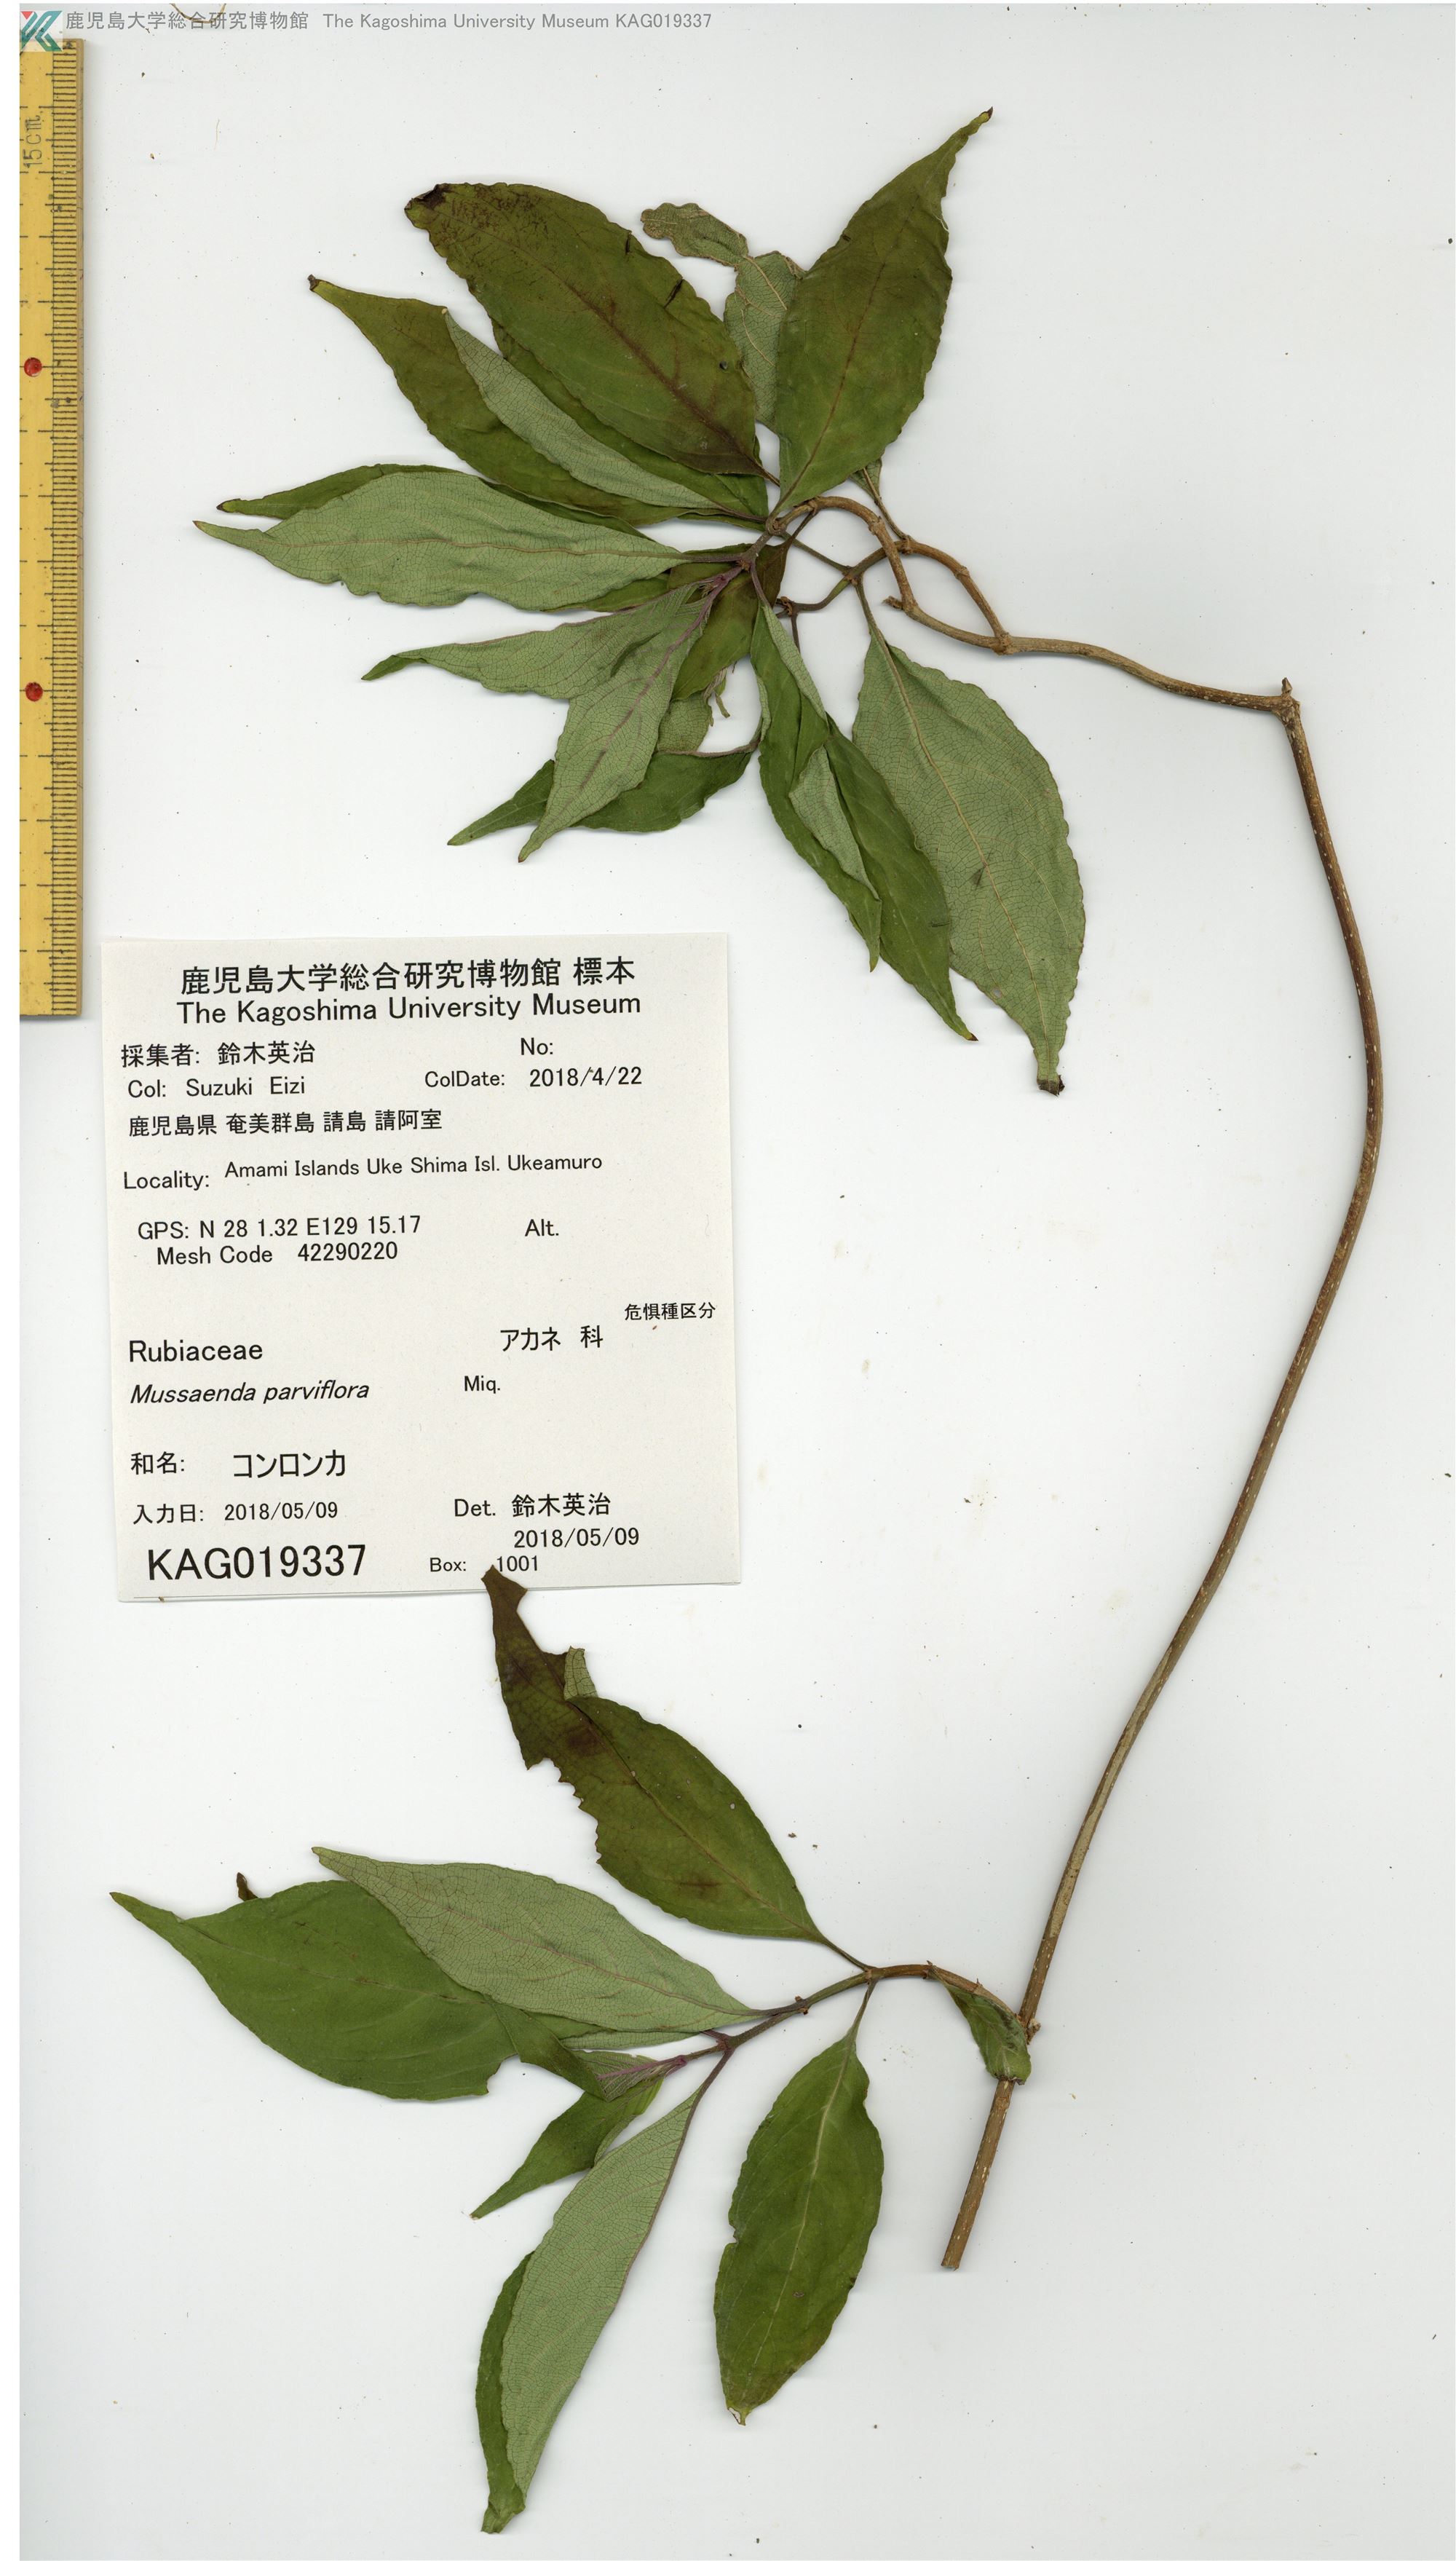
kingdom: Plantae
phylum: Tracheophyta
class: Magnoliopsida
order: Gentianales
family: Rubiaceae
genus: Mussaenda
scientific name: Mussaenda parviflora
